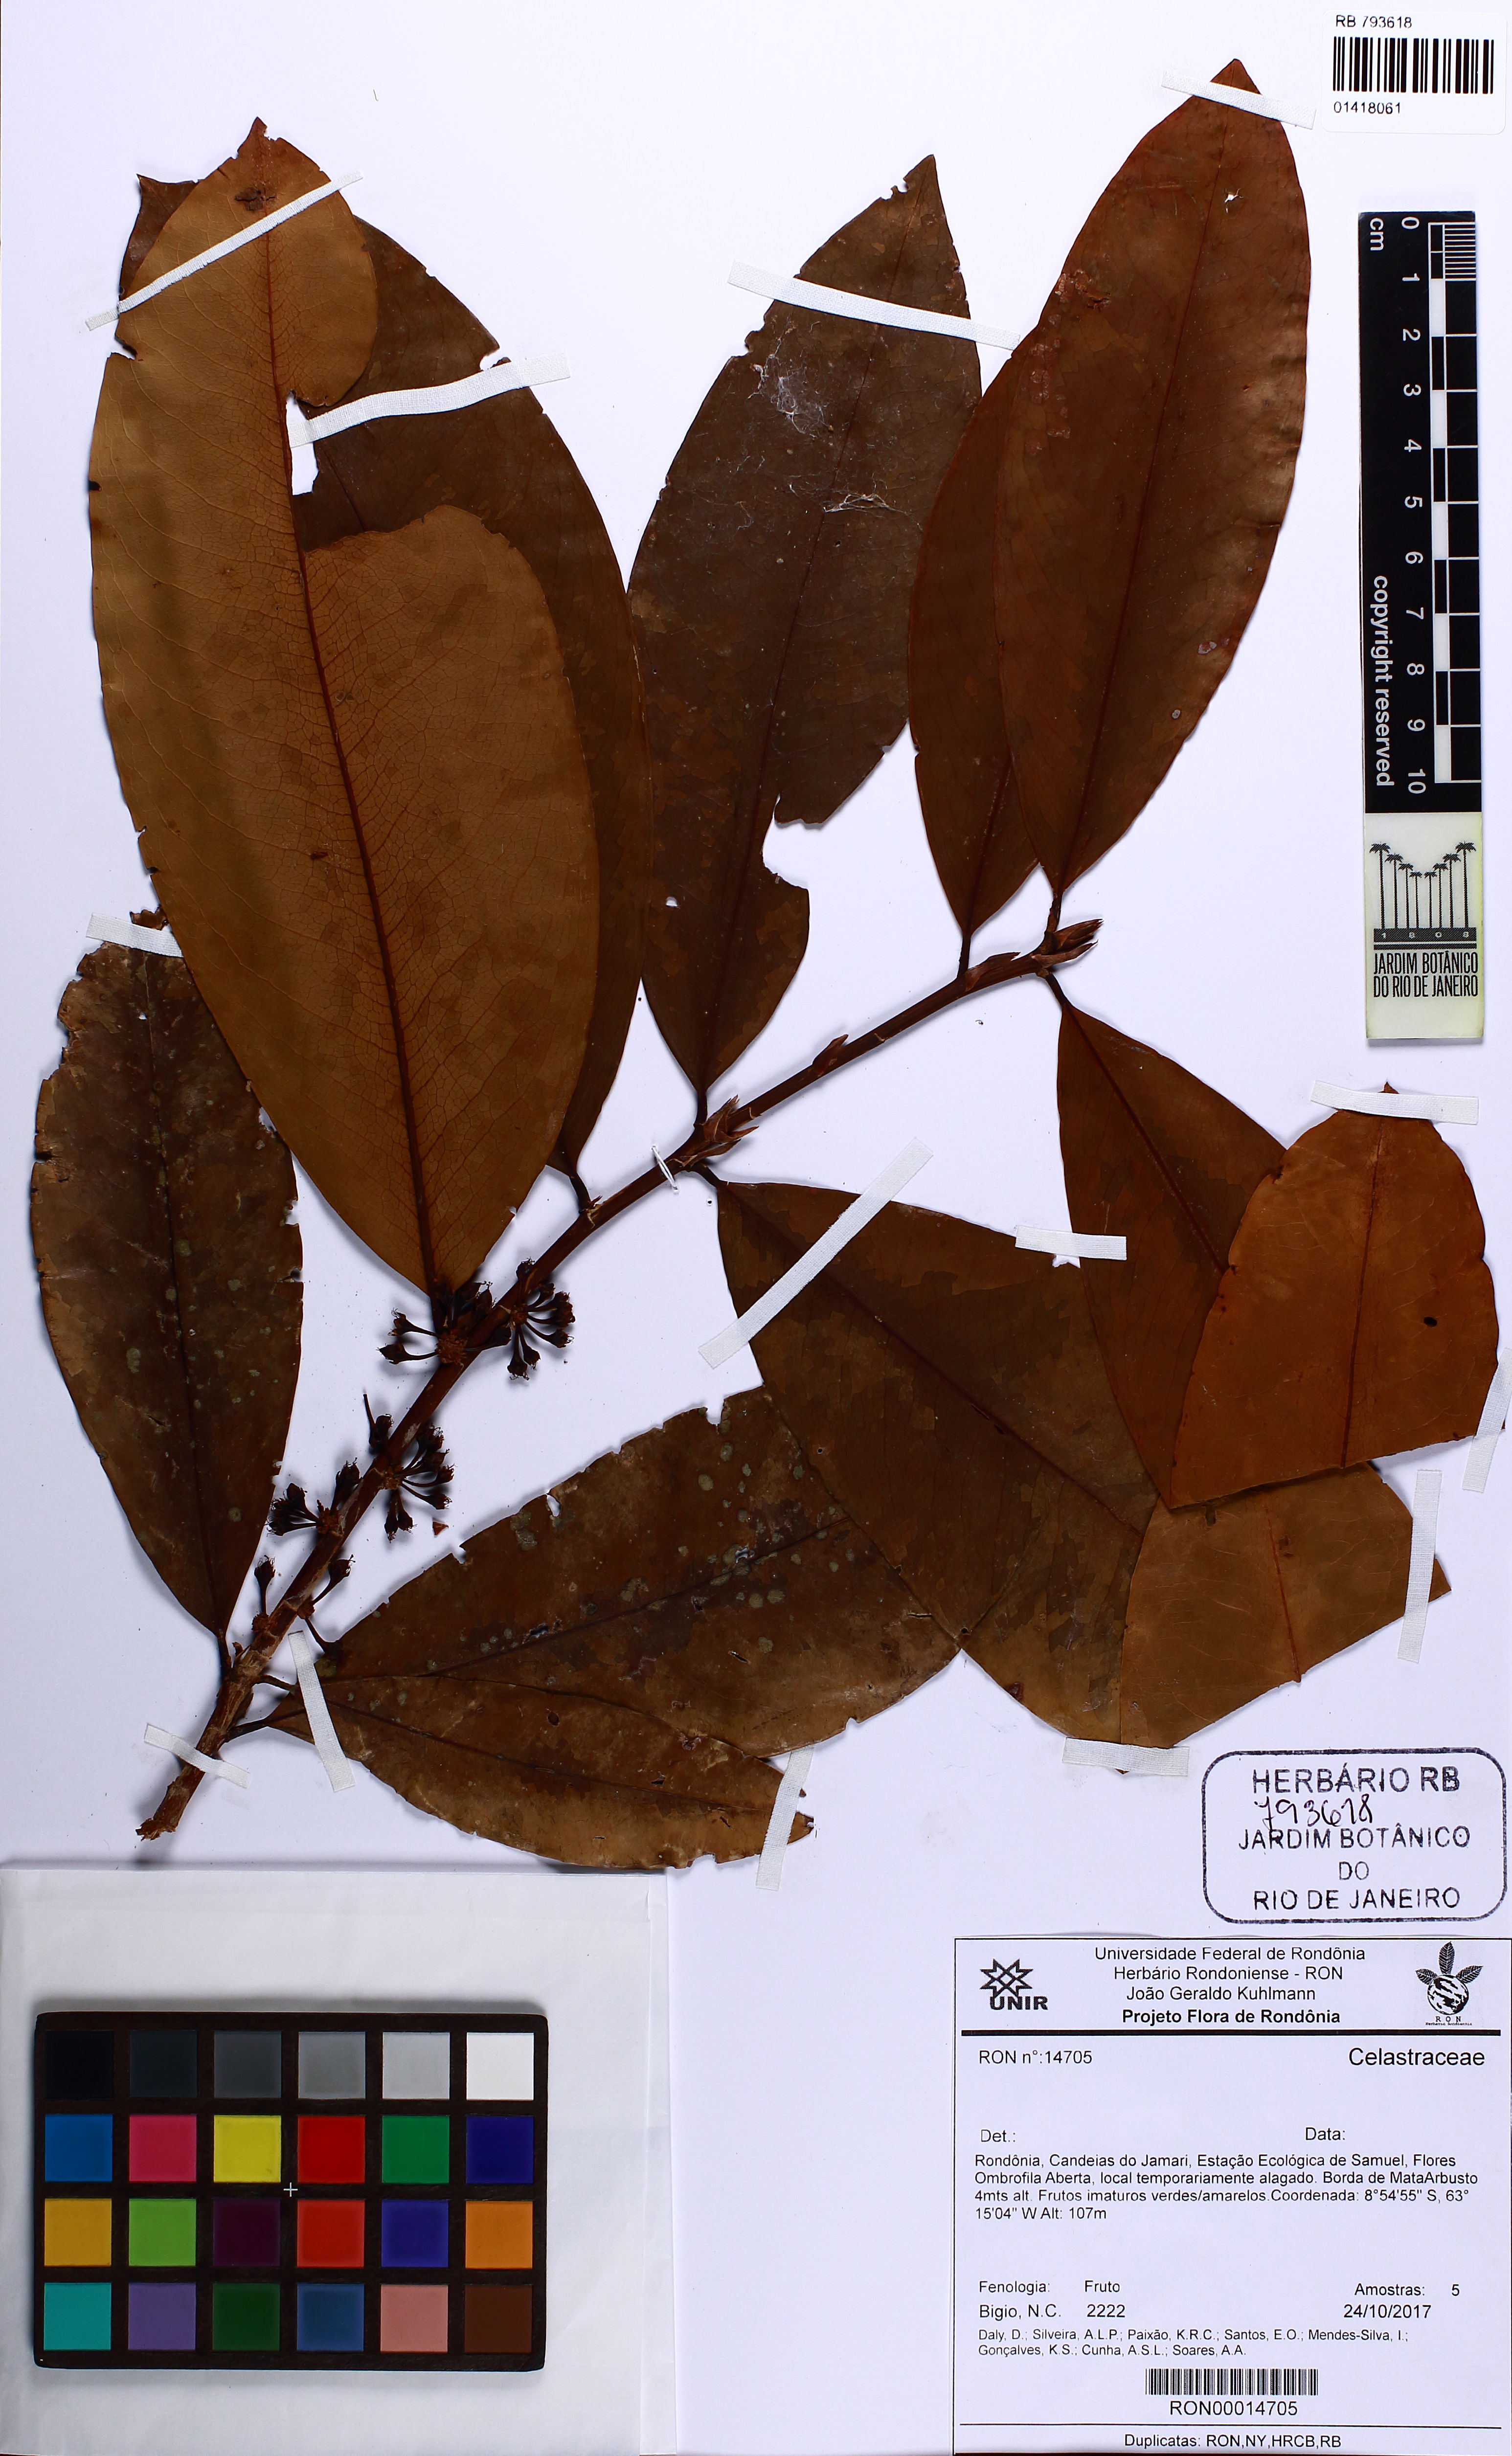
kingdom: Plantae
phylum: Tracheophyta
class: Magnoliopsida
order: Celastrales
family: Celastraceae
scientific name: Celastraceae
